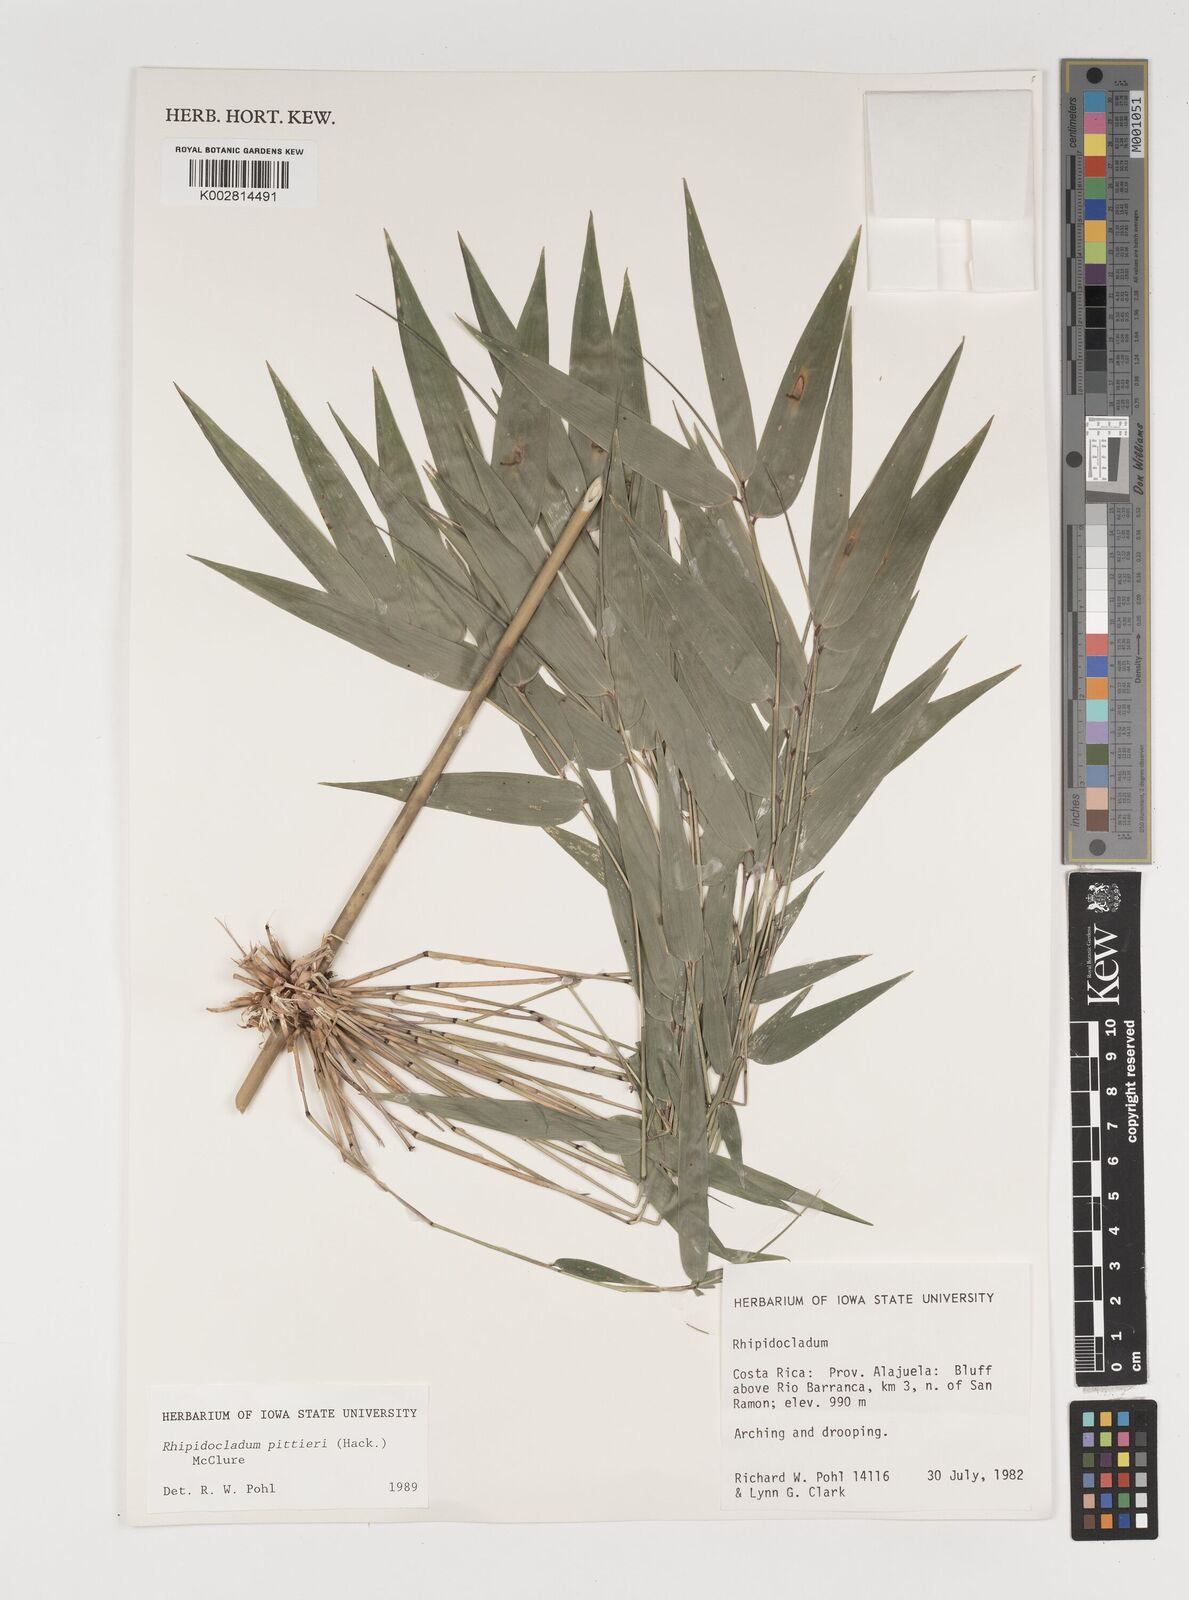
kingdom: Plantae
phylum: Tracheophyta
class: Liliopsida
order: Poales
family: Poaceae
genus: Rhipidocladum
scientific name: Rhipidocladum pittieri
